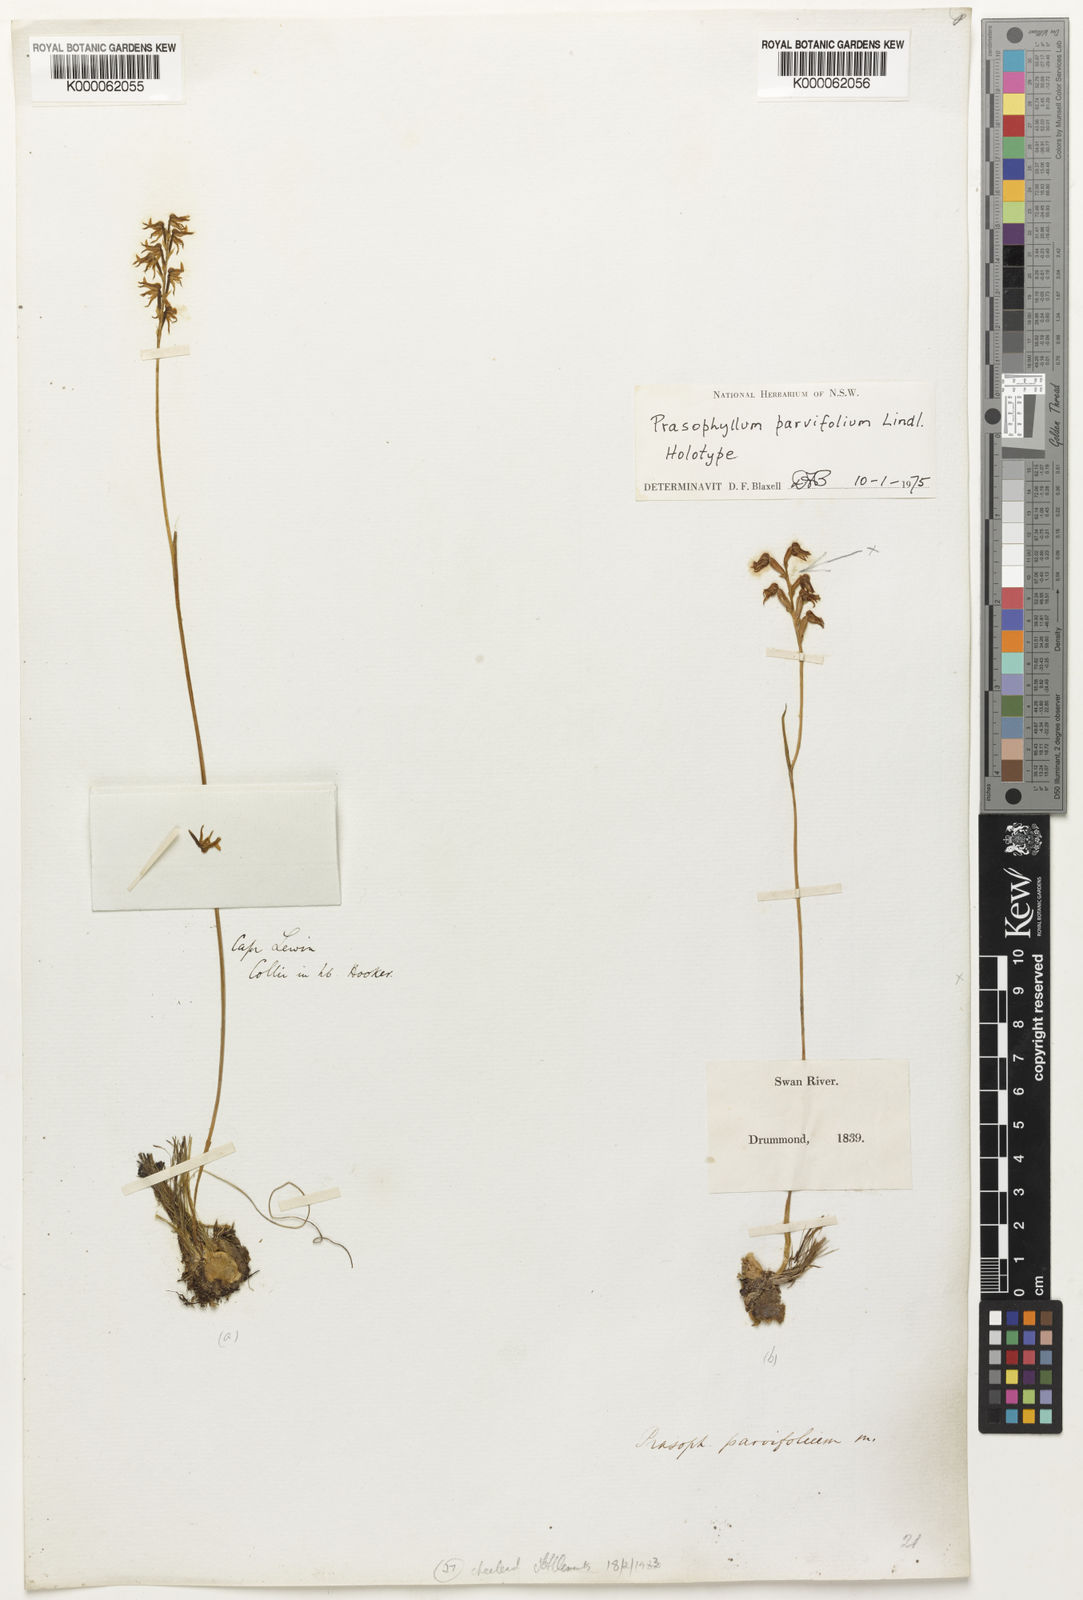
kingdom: Plantae
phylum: Tracheophyta
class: Liliopsida
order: Asparagales
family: Orchidaceae
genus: Prasophyllum
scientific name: Prasophyllum parvifolium
